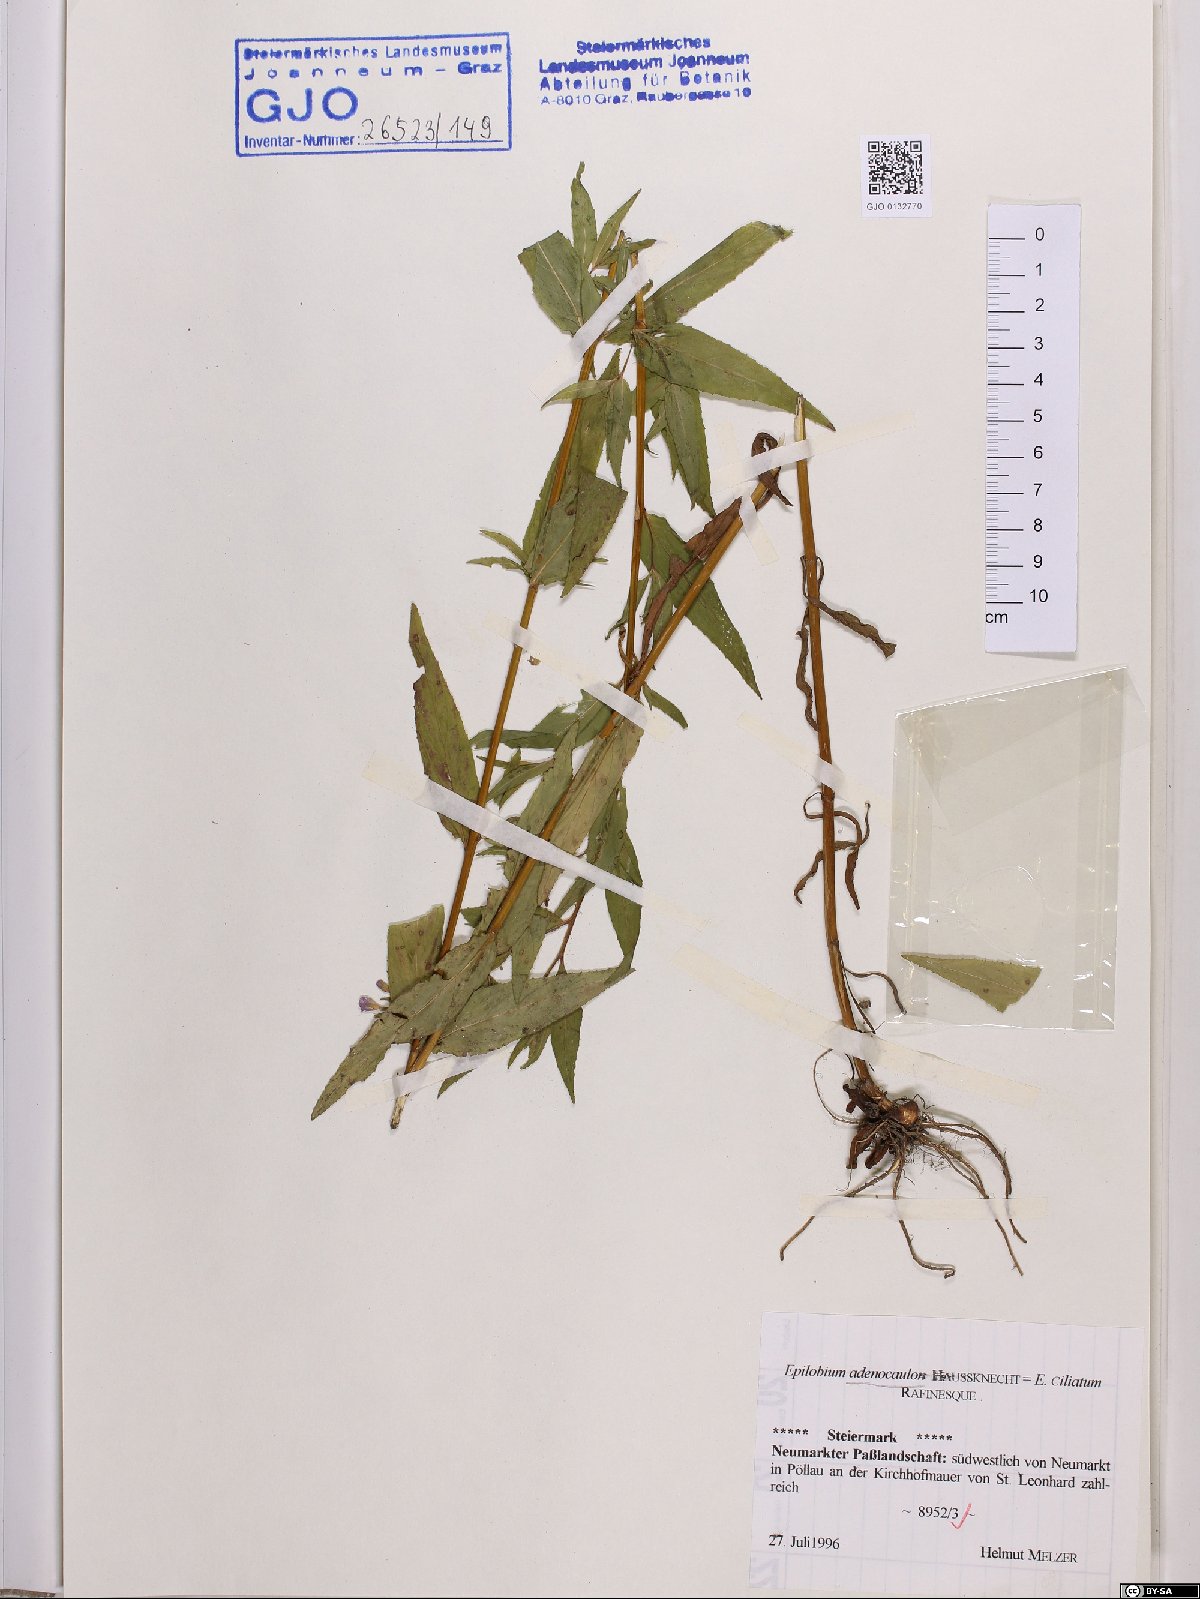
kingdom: Plantae
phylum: Tracheophyta
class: Magnoliopsida
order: Myrtales
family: Onagraceae
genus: Epilobium
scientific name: Epilobium ciliatum
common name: American willowherb
